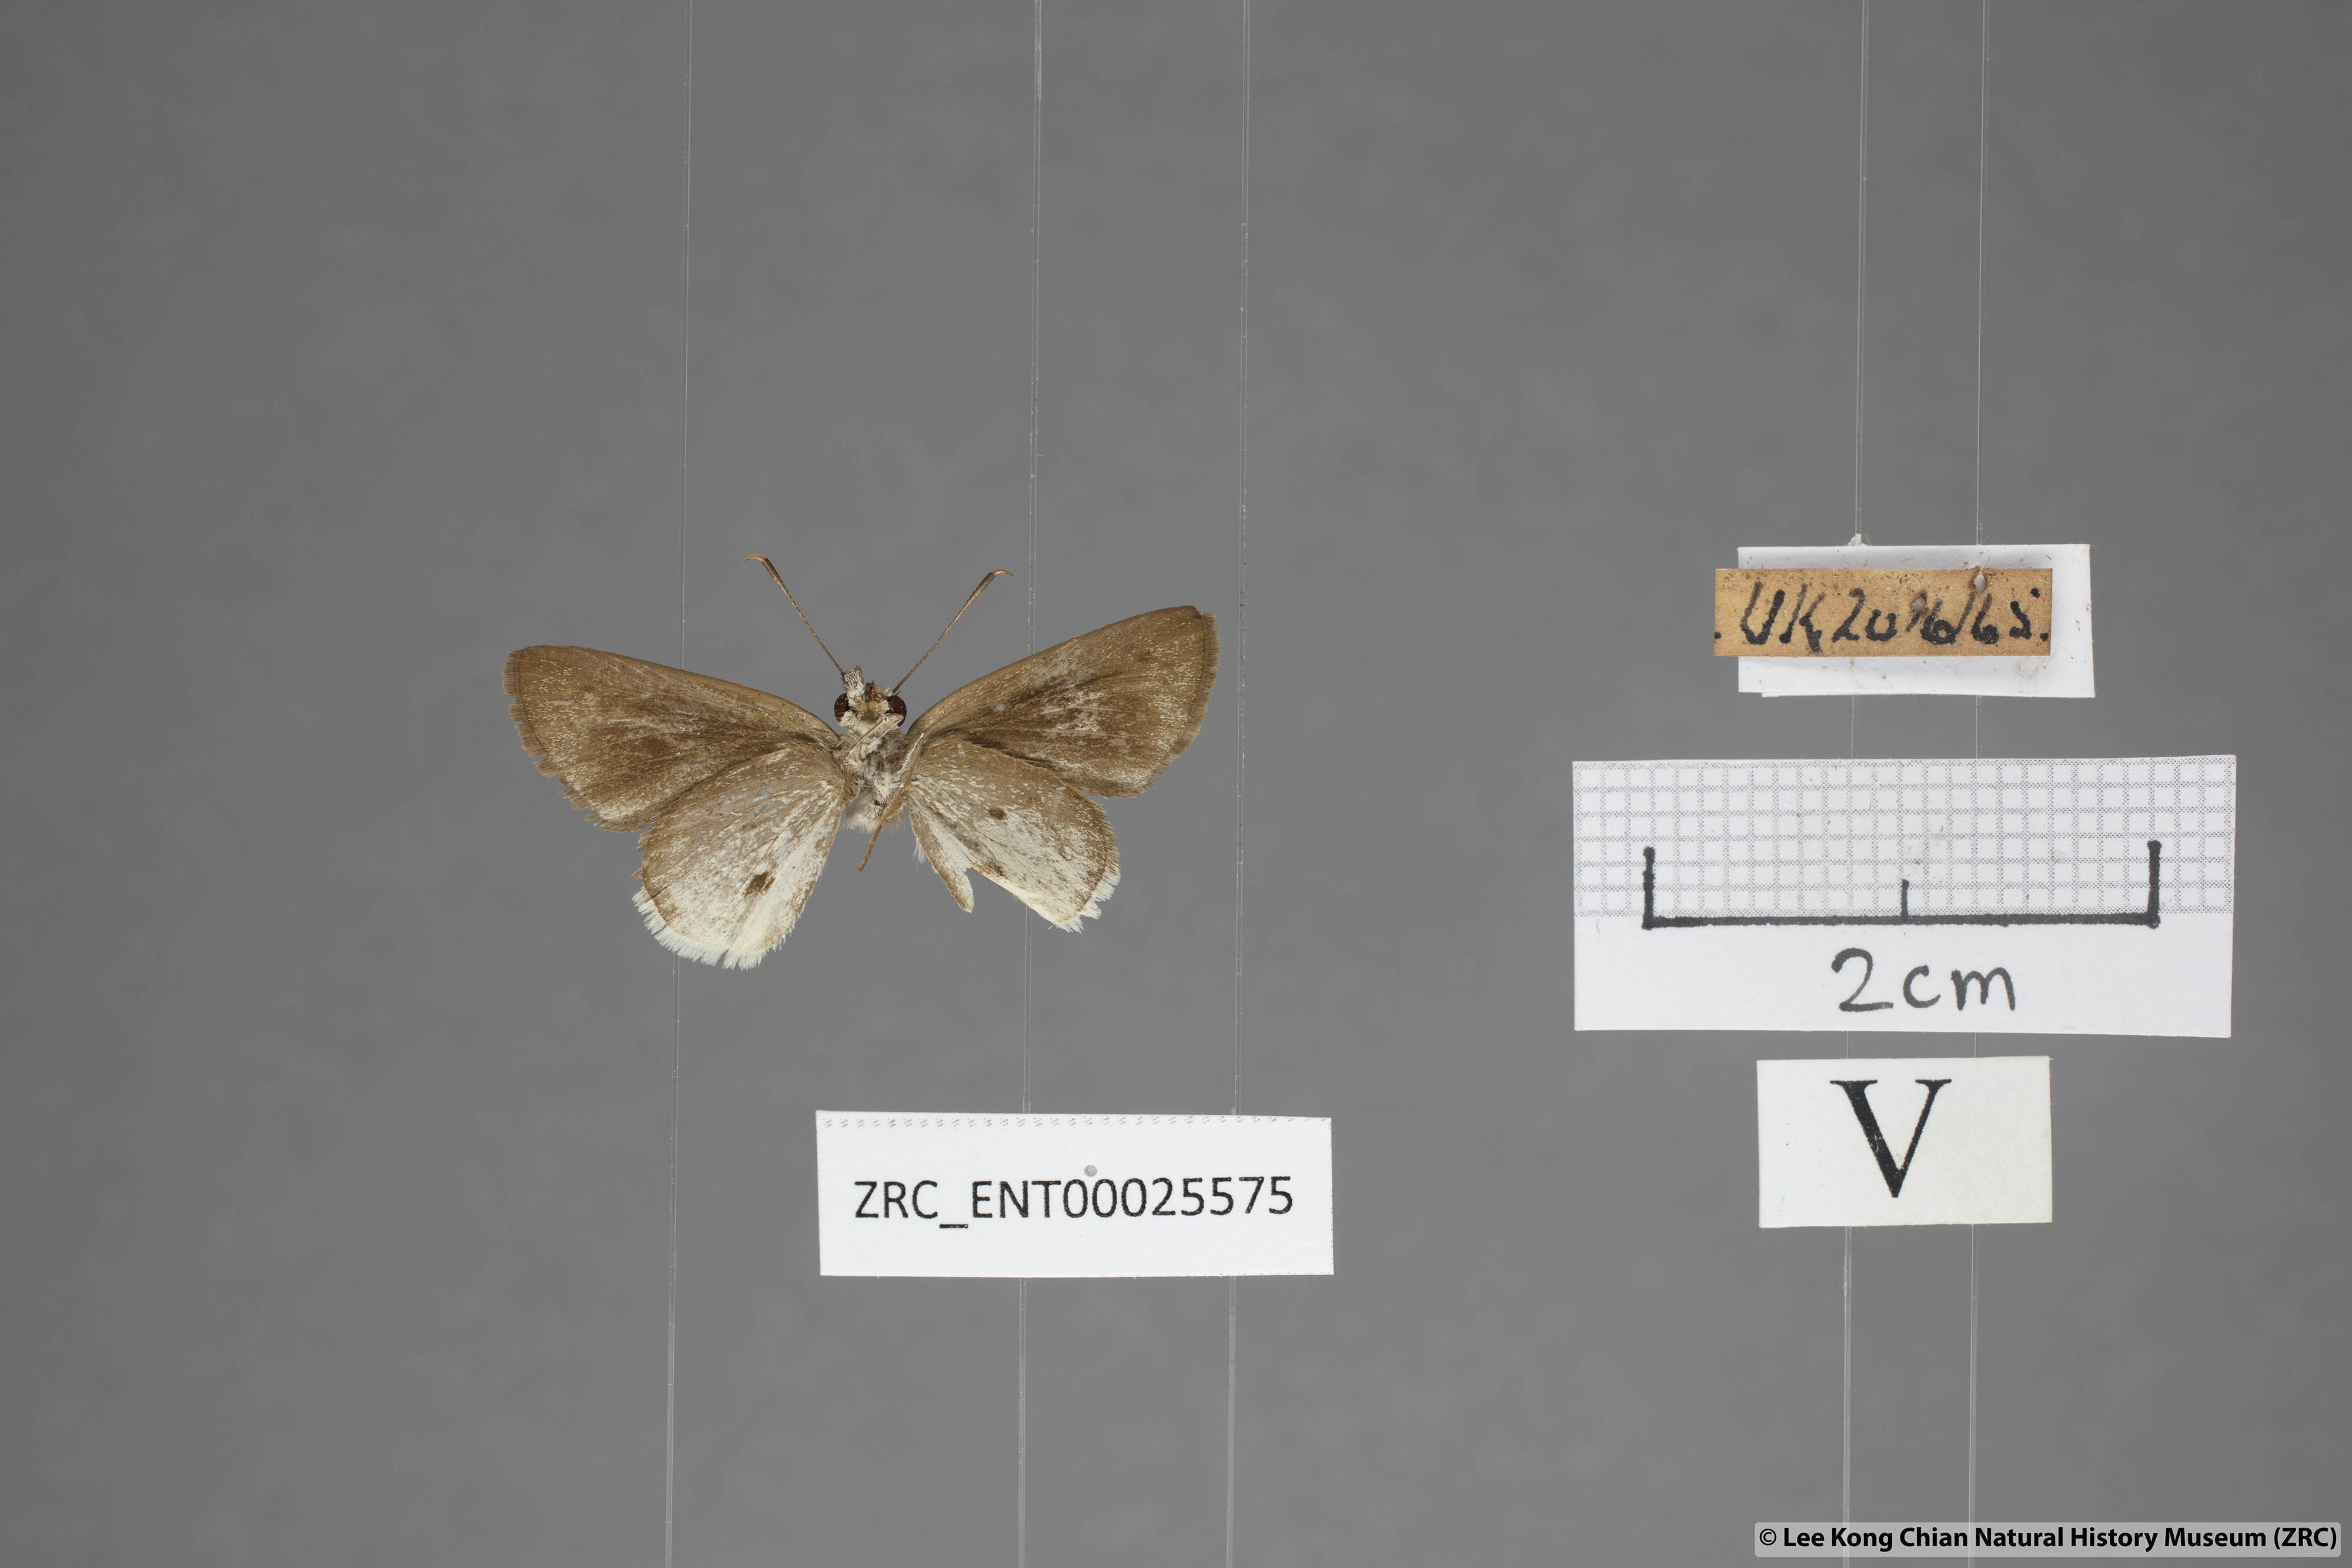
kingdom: Animalia
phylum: Arthropoda
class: Insecta
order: Lepidoptera
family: Hesperiidae
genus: Suastus
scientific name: Suastus everyx
